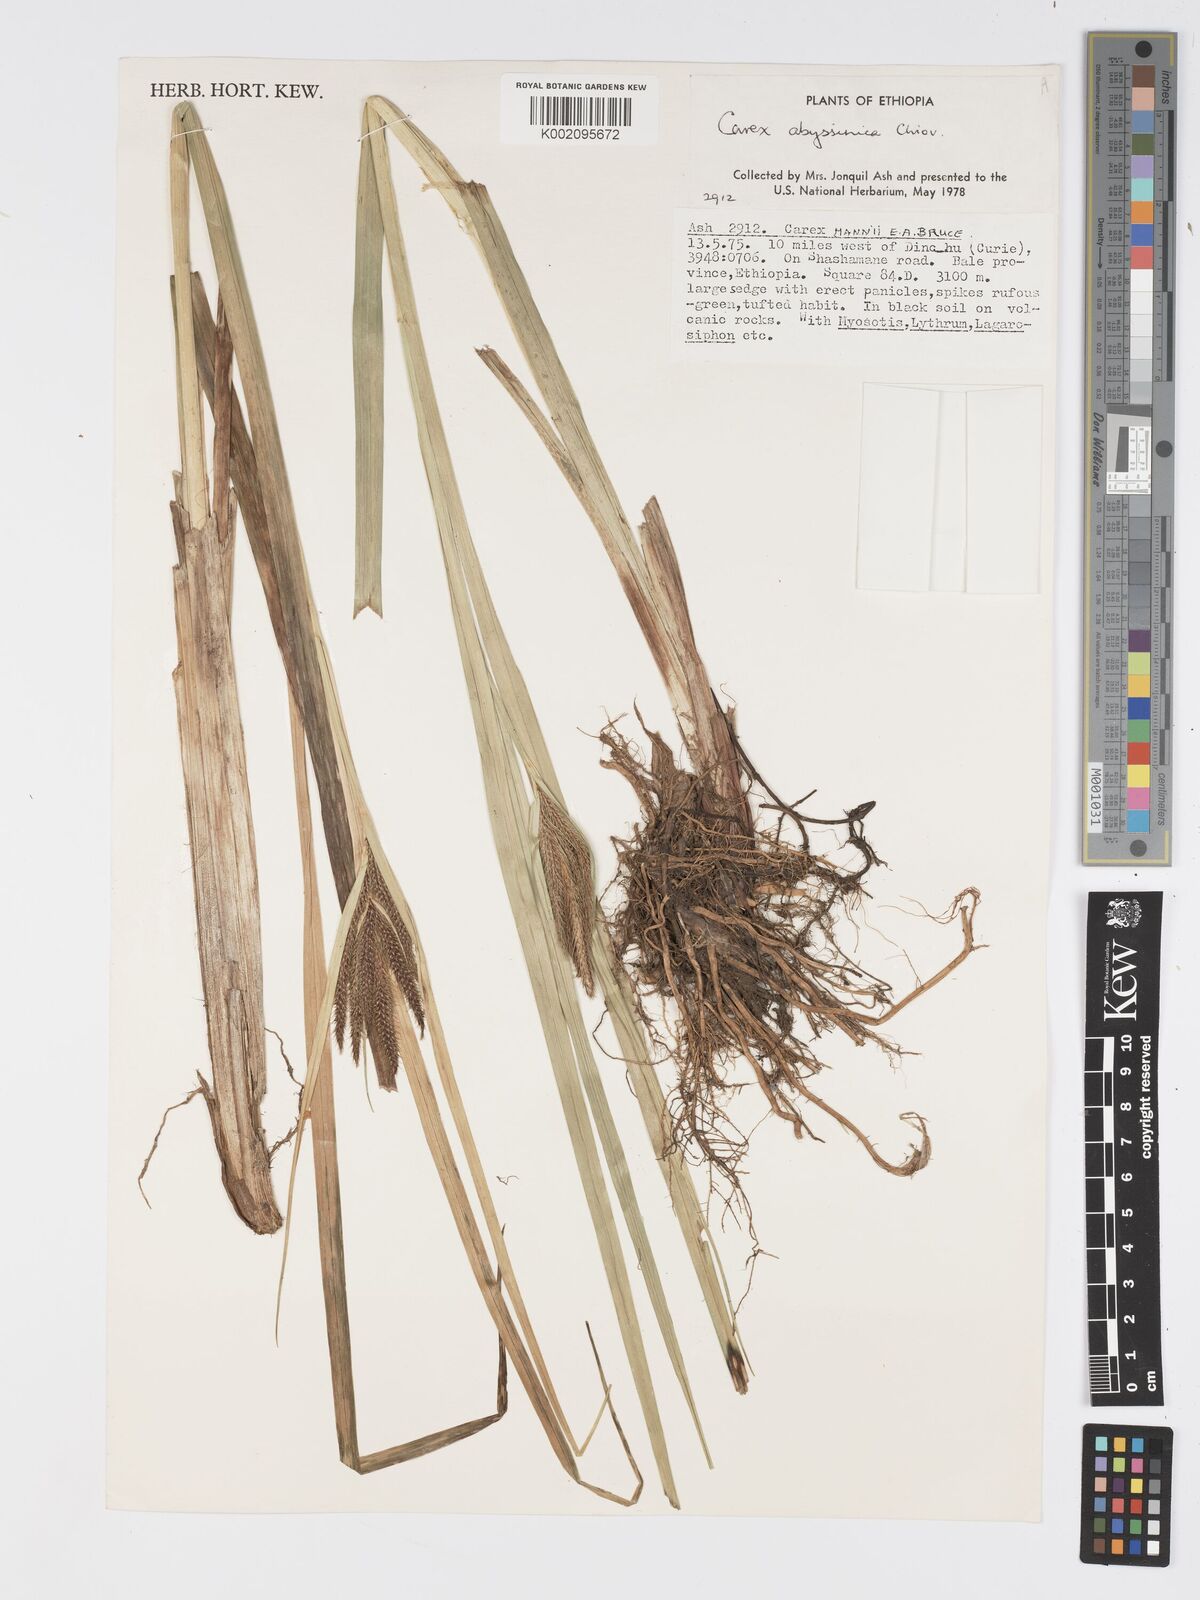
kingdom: Plantae
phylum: Tracheophyta
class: Liliopsida
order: Poales
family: Cyperaceae
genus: Carex
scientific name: Carex phragmitoides
